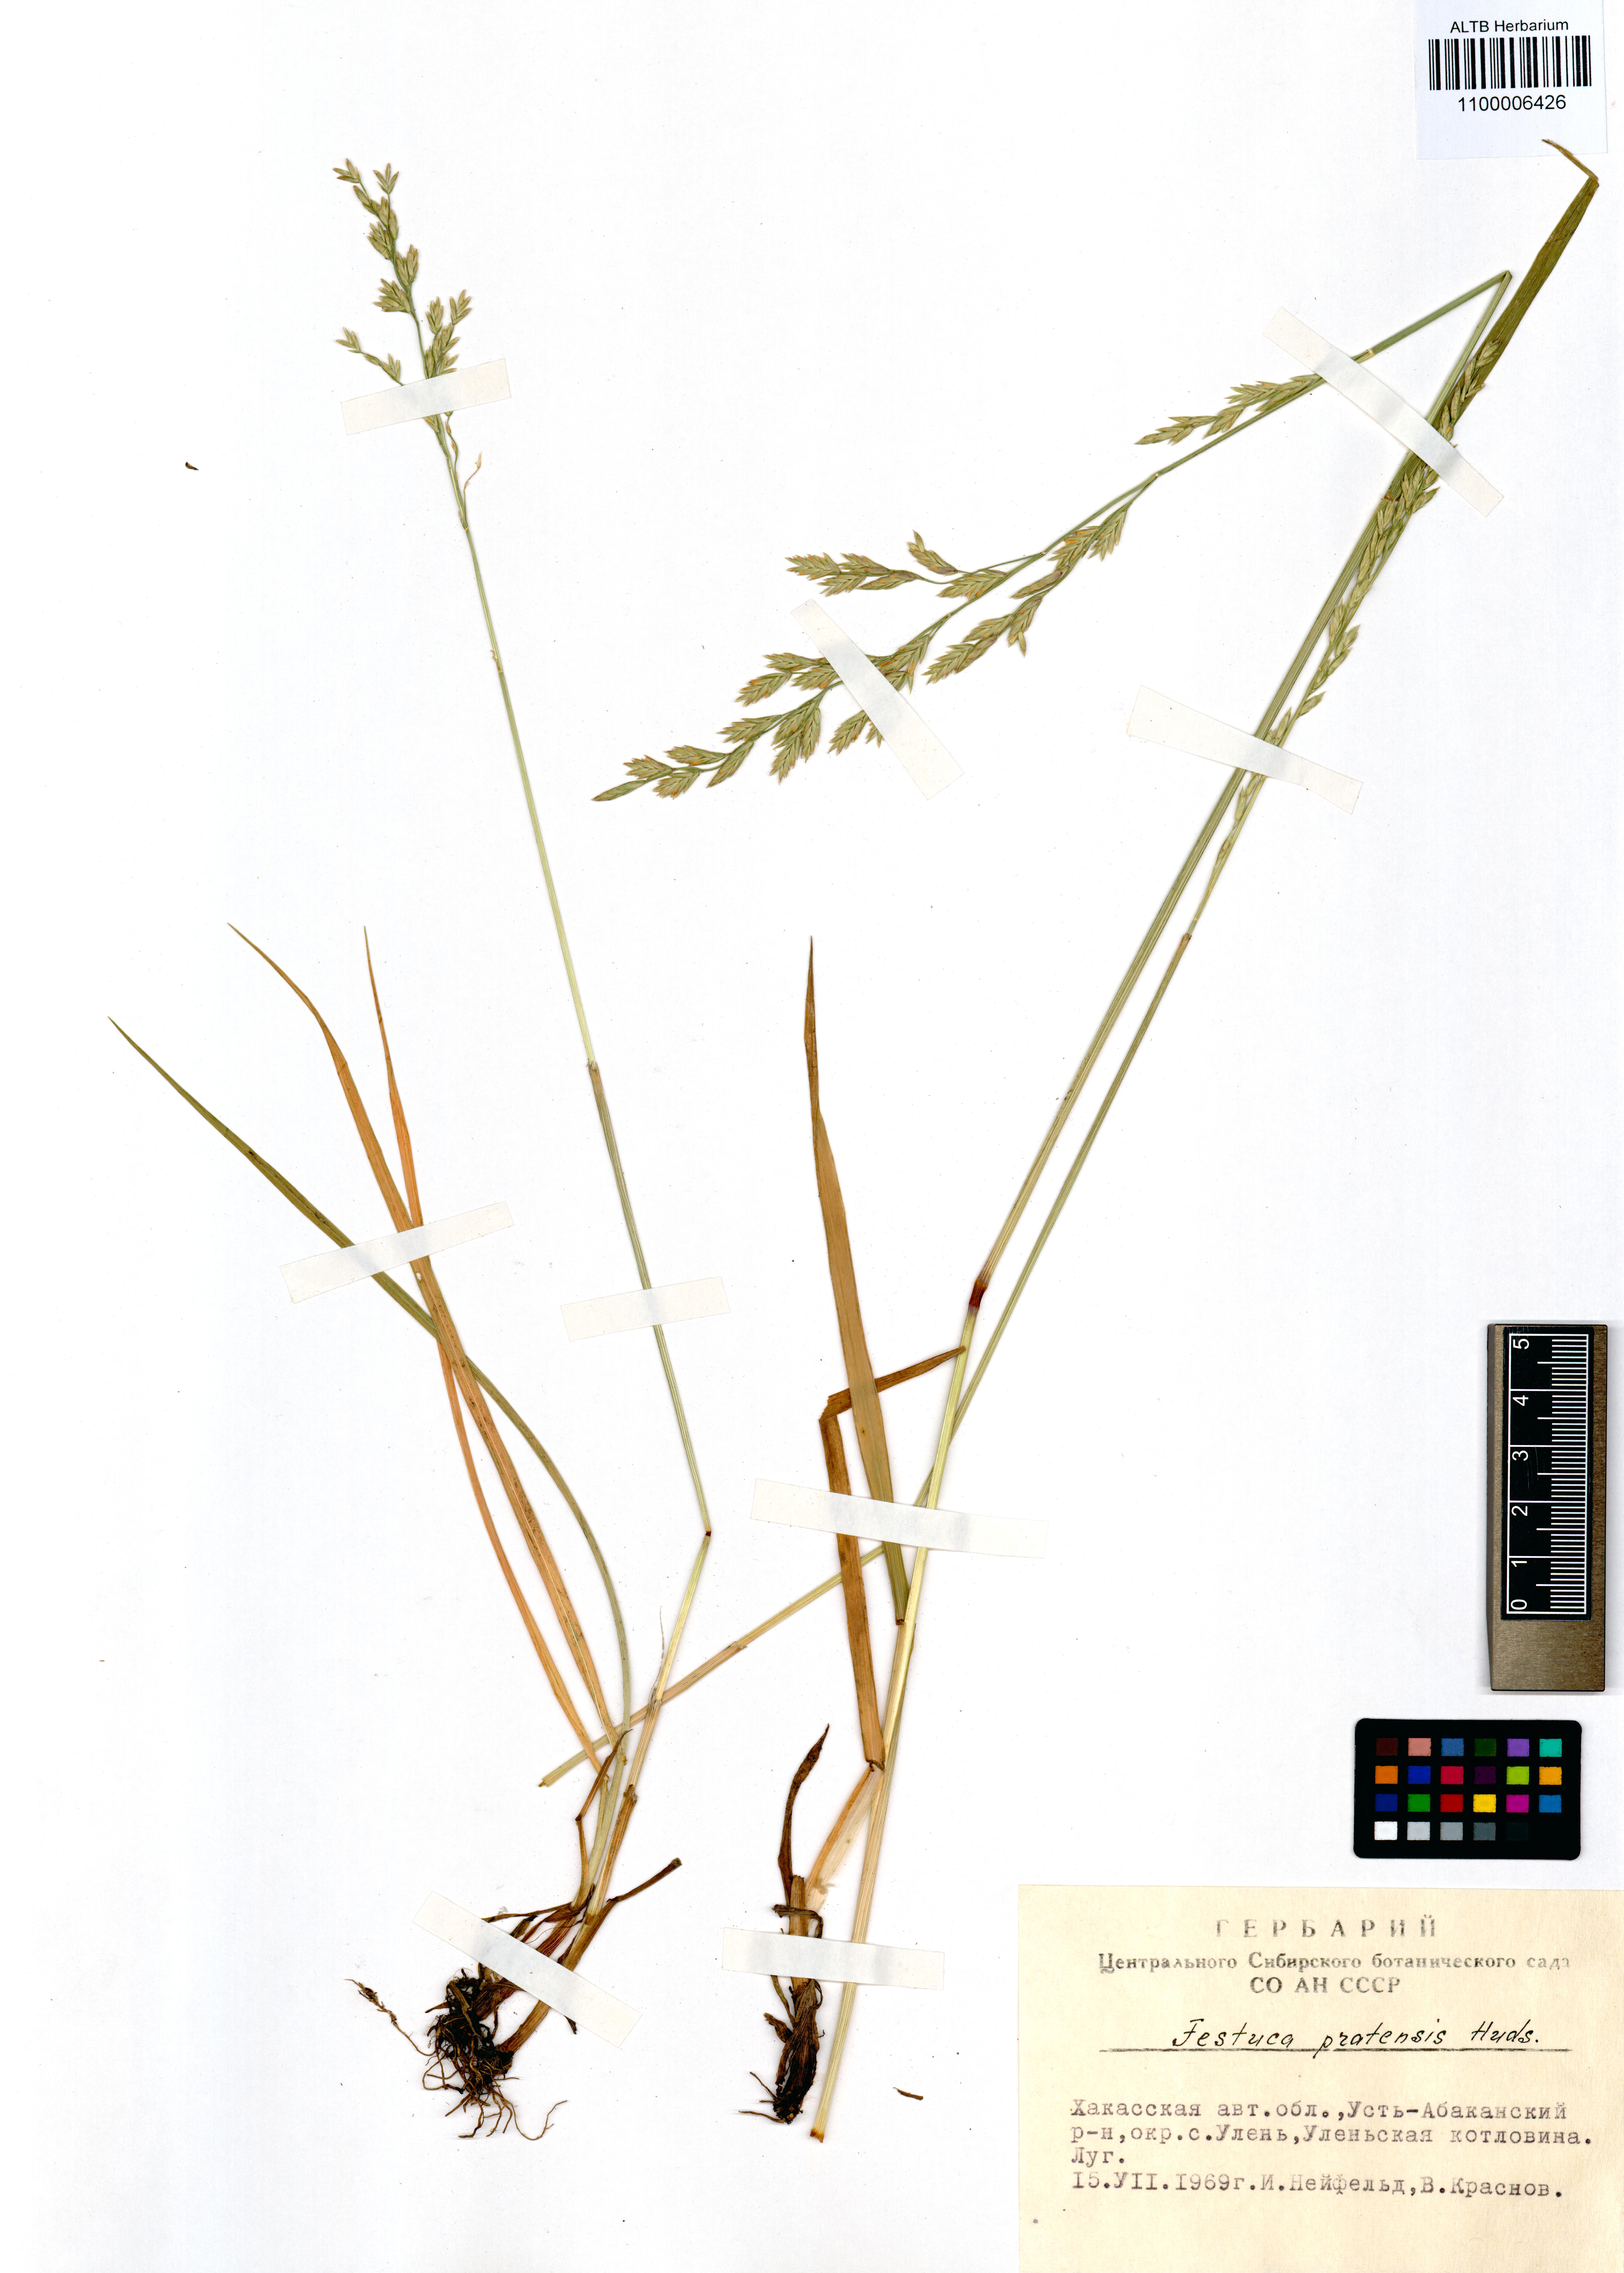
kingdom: Plantae
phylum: Tracheophyta
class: Liliopsida
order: Poales
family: Poaceae
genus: Lolium
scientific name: Lolium pratense
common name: Dover grass
